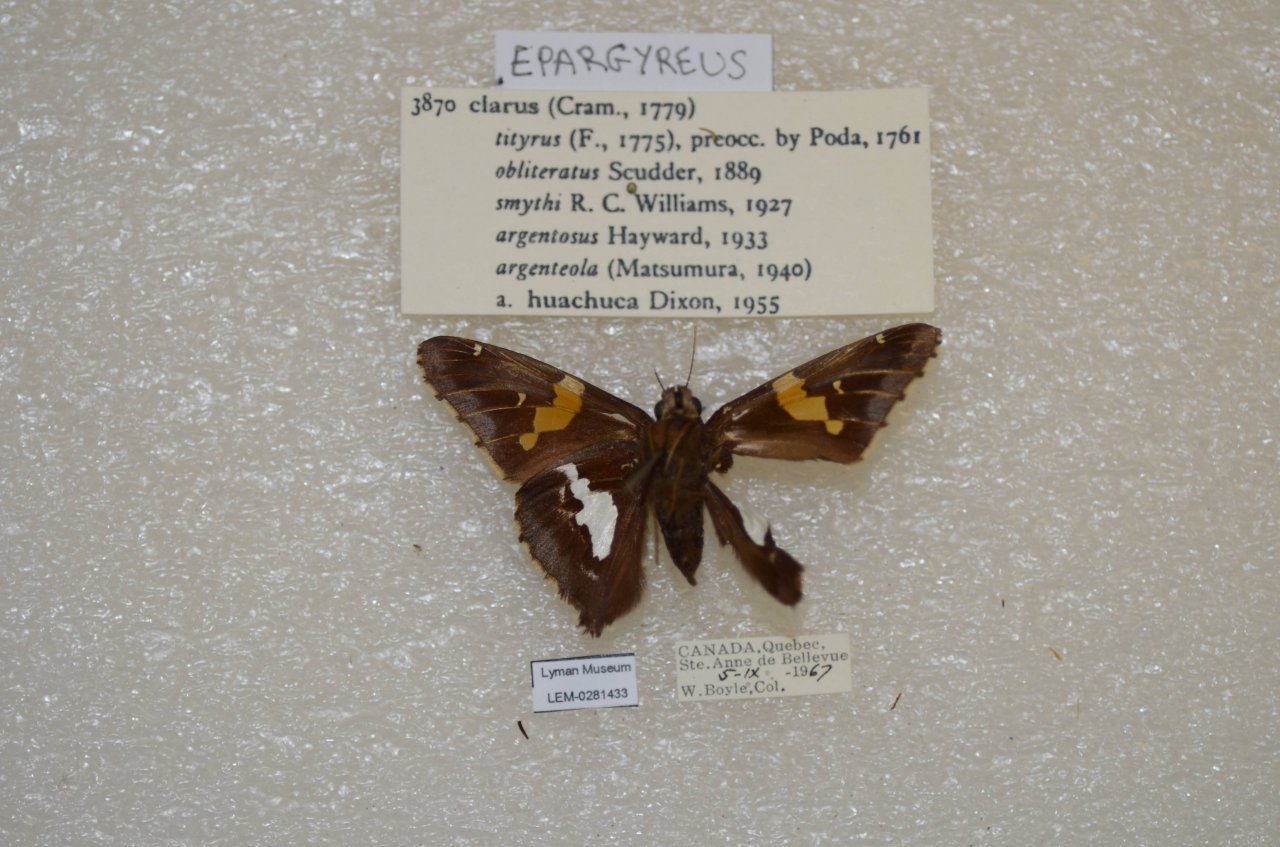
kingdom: Animalia
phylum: Arthropoda
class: Insecta
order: Lepidoptera
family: Hesperiidae
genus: Epargyreus
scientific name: Epargyreus clarus
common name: Silver-spotted Skipper
